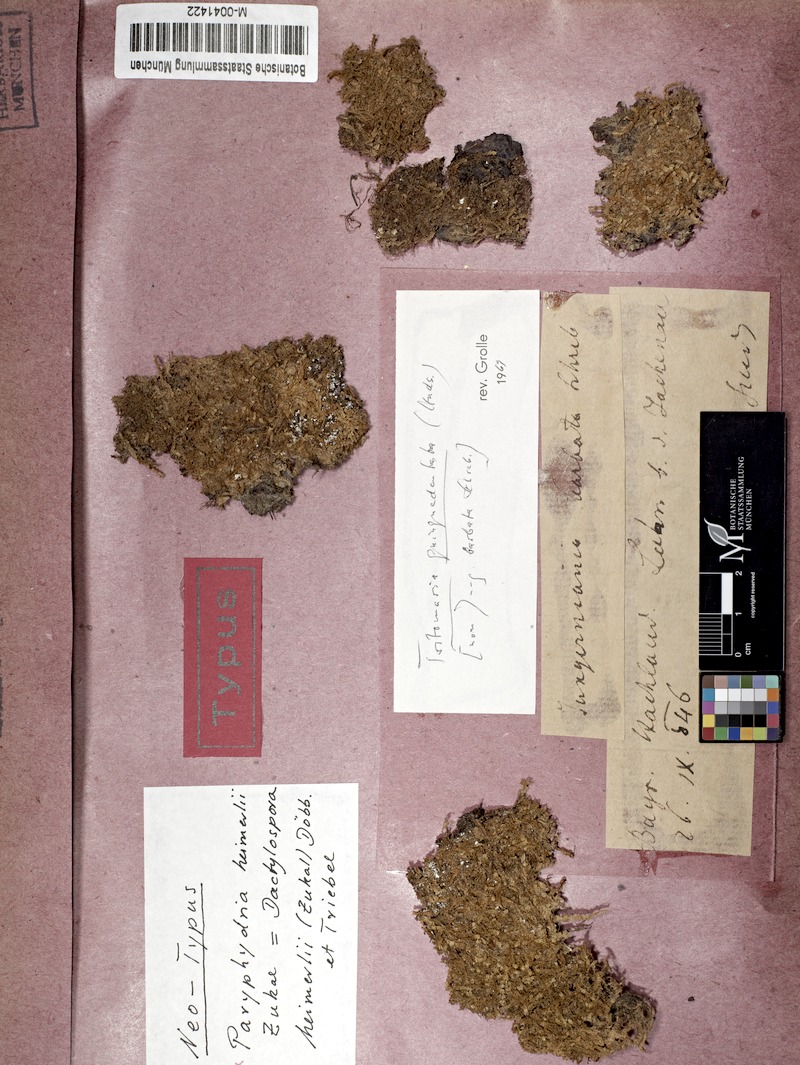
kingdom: Fungi
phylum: Ascomycota
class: Lecanoromycetes
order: Lecanorales
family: Dactylosporaceae
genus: Paruephaedria
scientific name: Paruephaedria heimerlii
